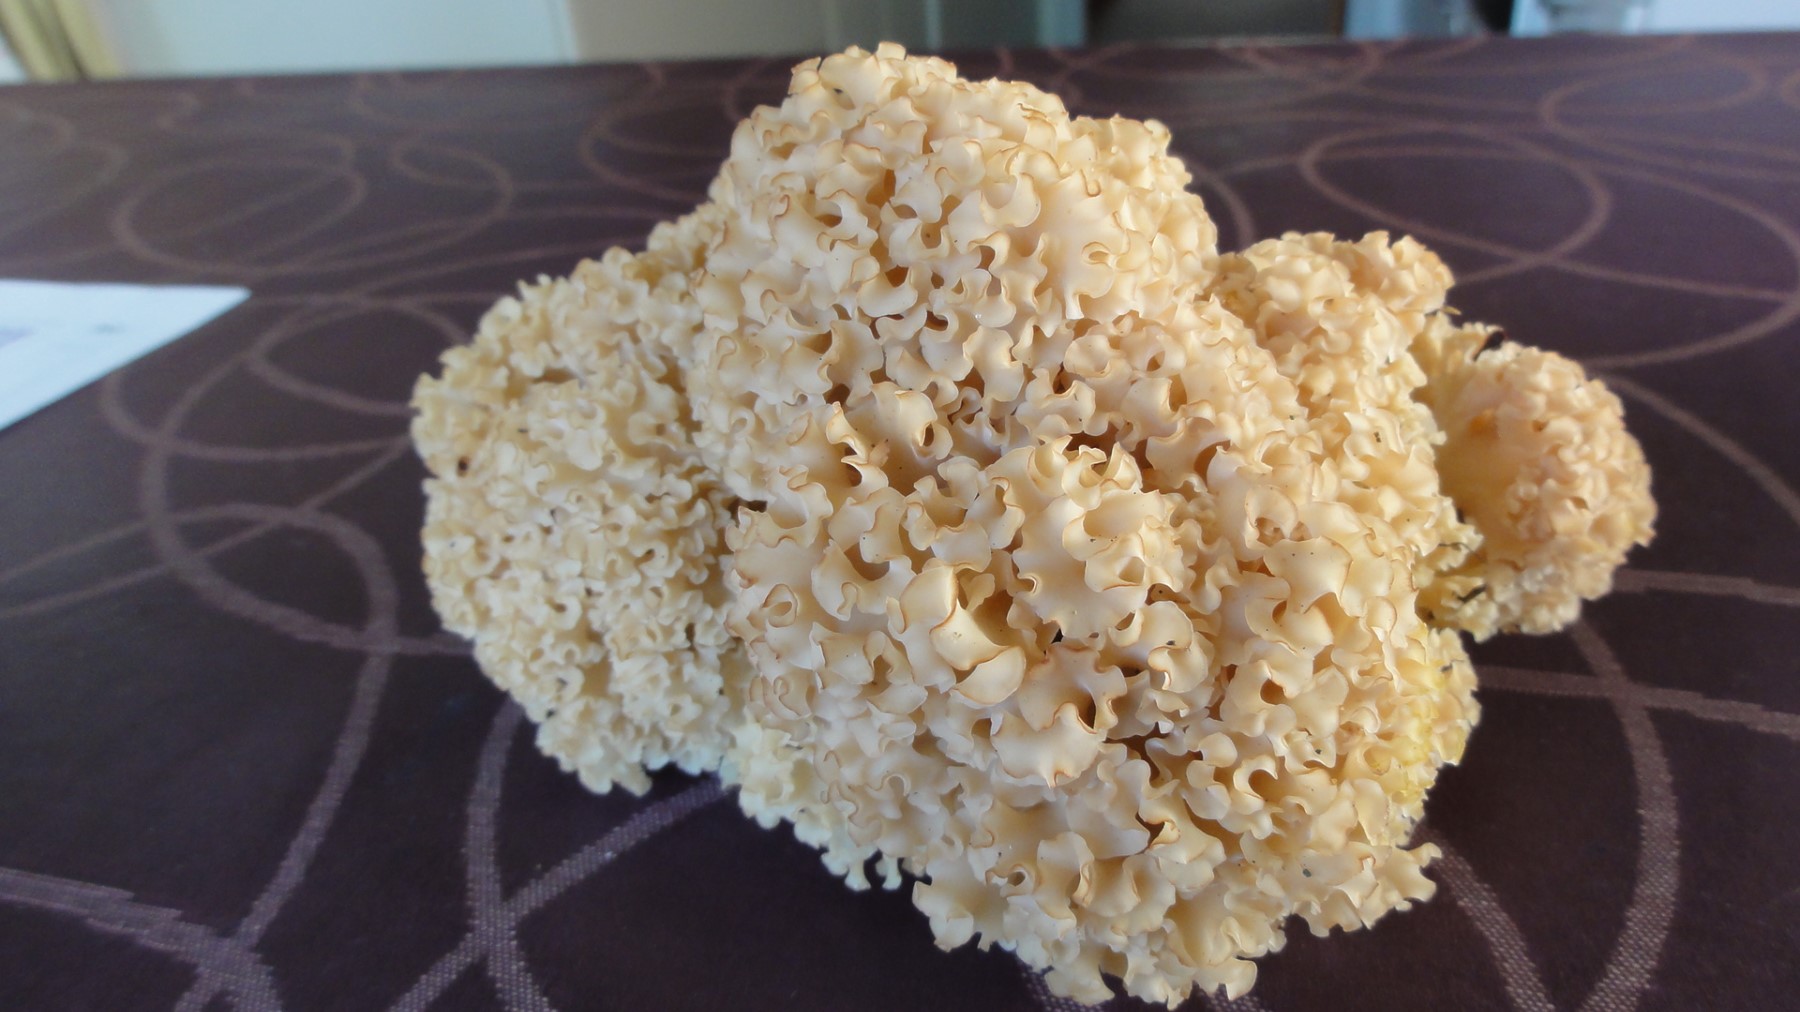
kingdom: Fungi
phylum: Basidiomycota
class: Agaricomycetes
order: Polyporales
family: Sparassidaceae
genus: Sparassis
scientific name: Sparassis crispa
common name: kruset blomkålssvamp
